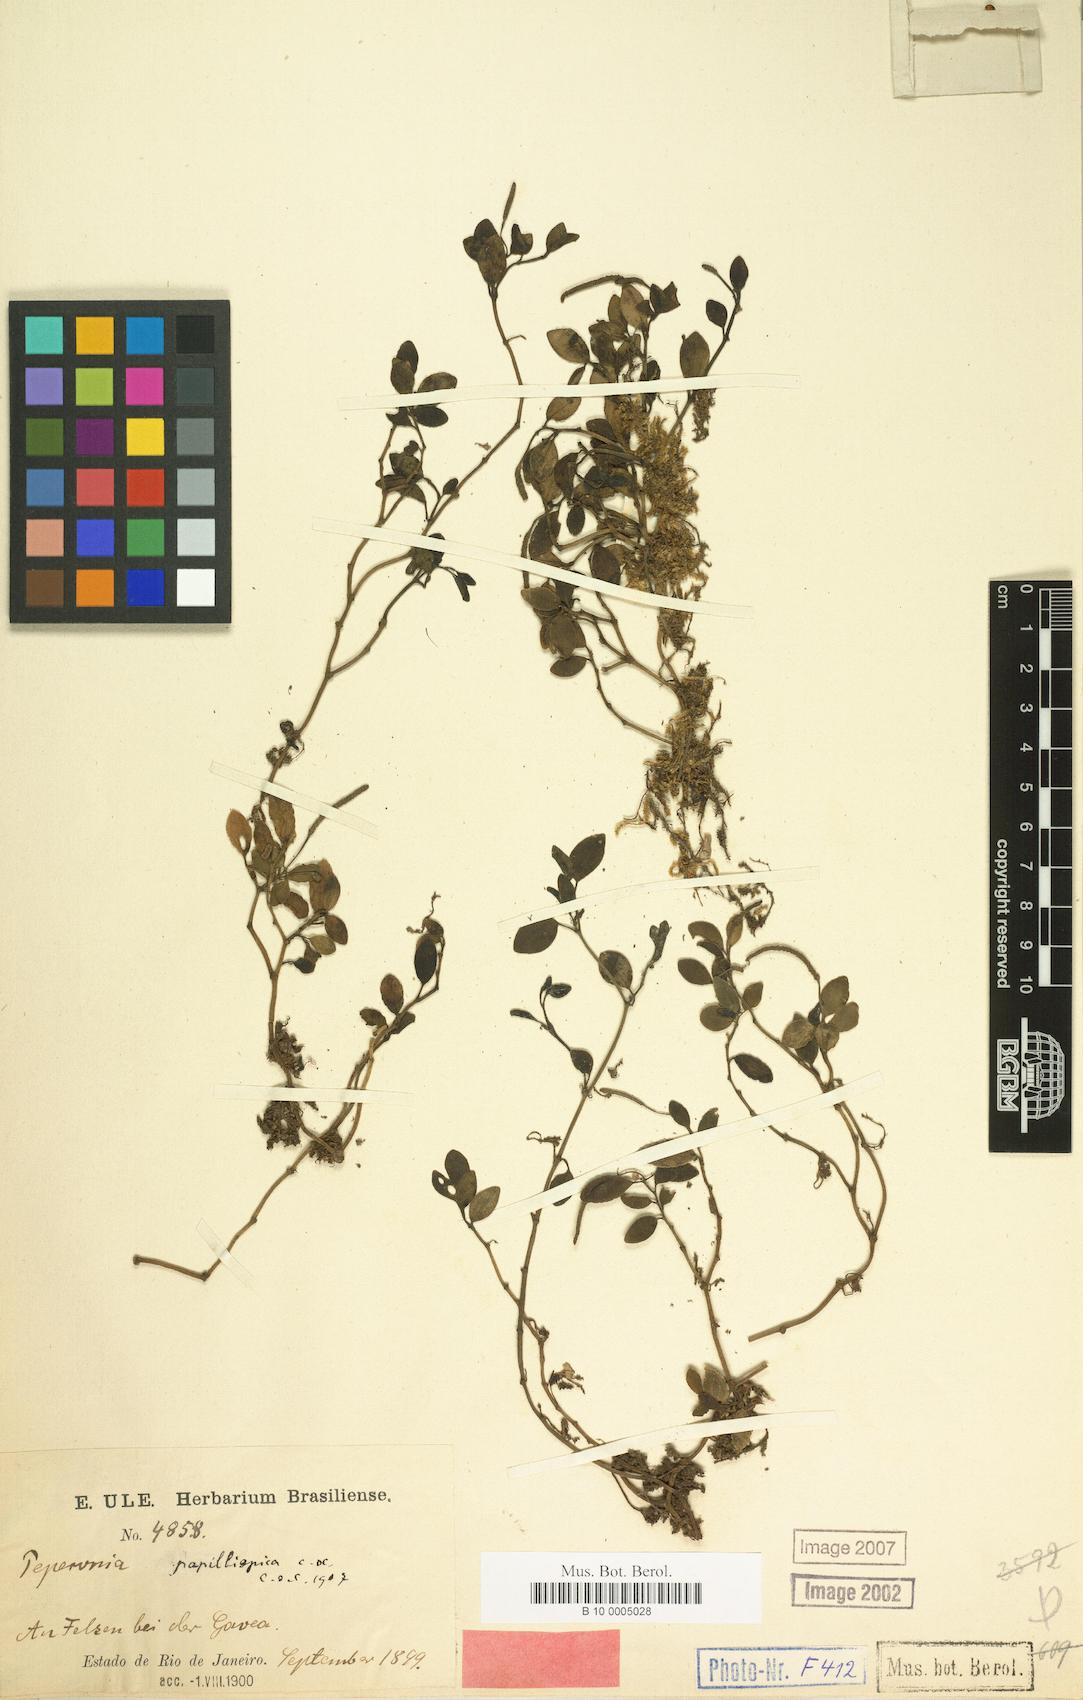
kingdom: Plantae
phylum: Tracheophyta
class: Magnoliopsida
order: Piperales
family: Piperaceae
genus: Peperomia
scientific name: Peperomia papillispica
